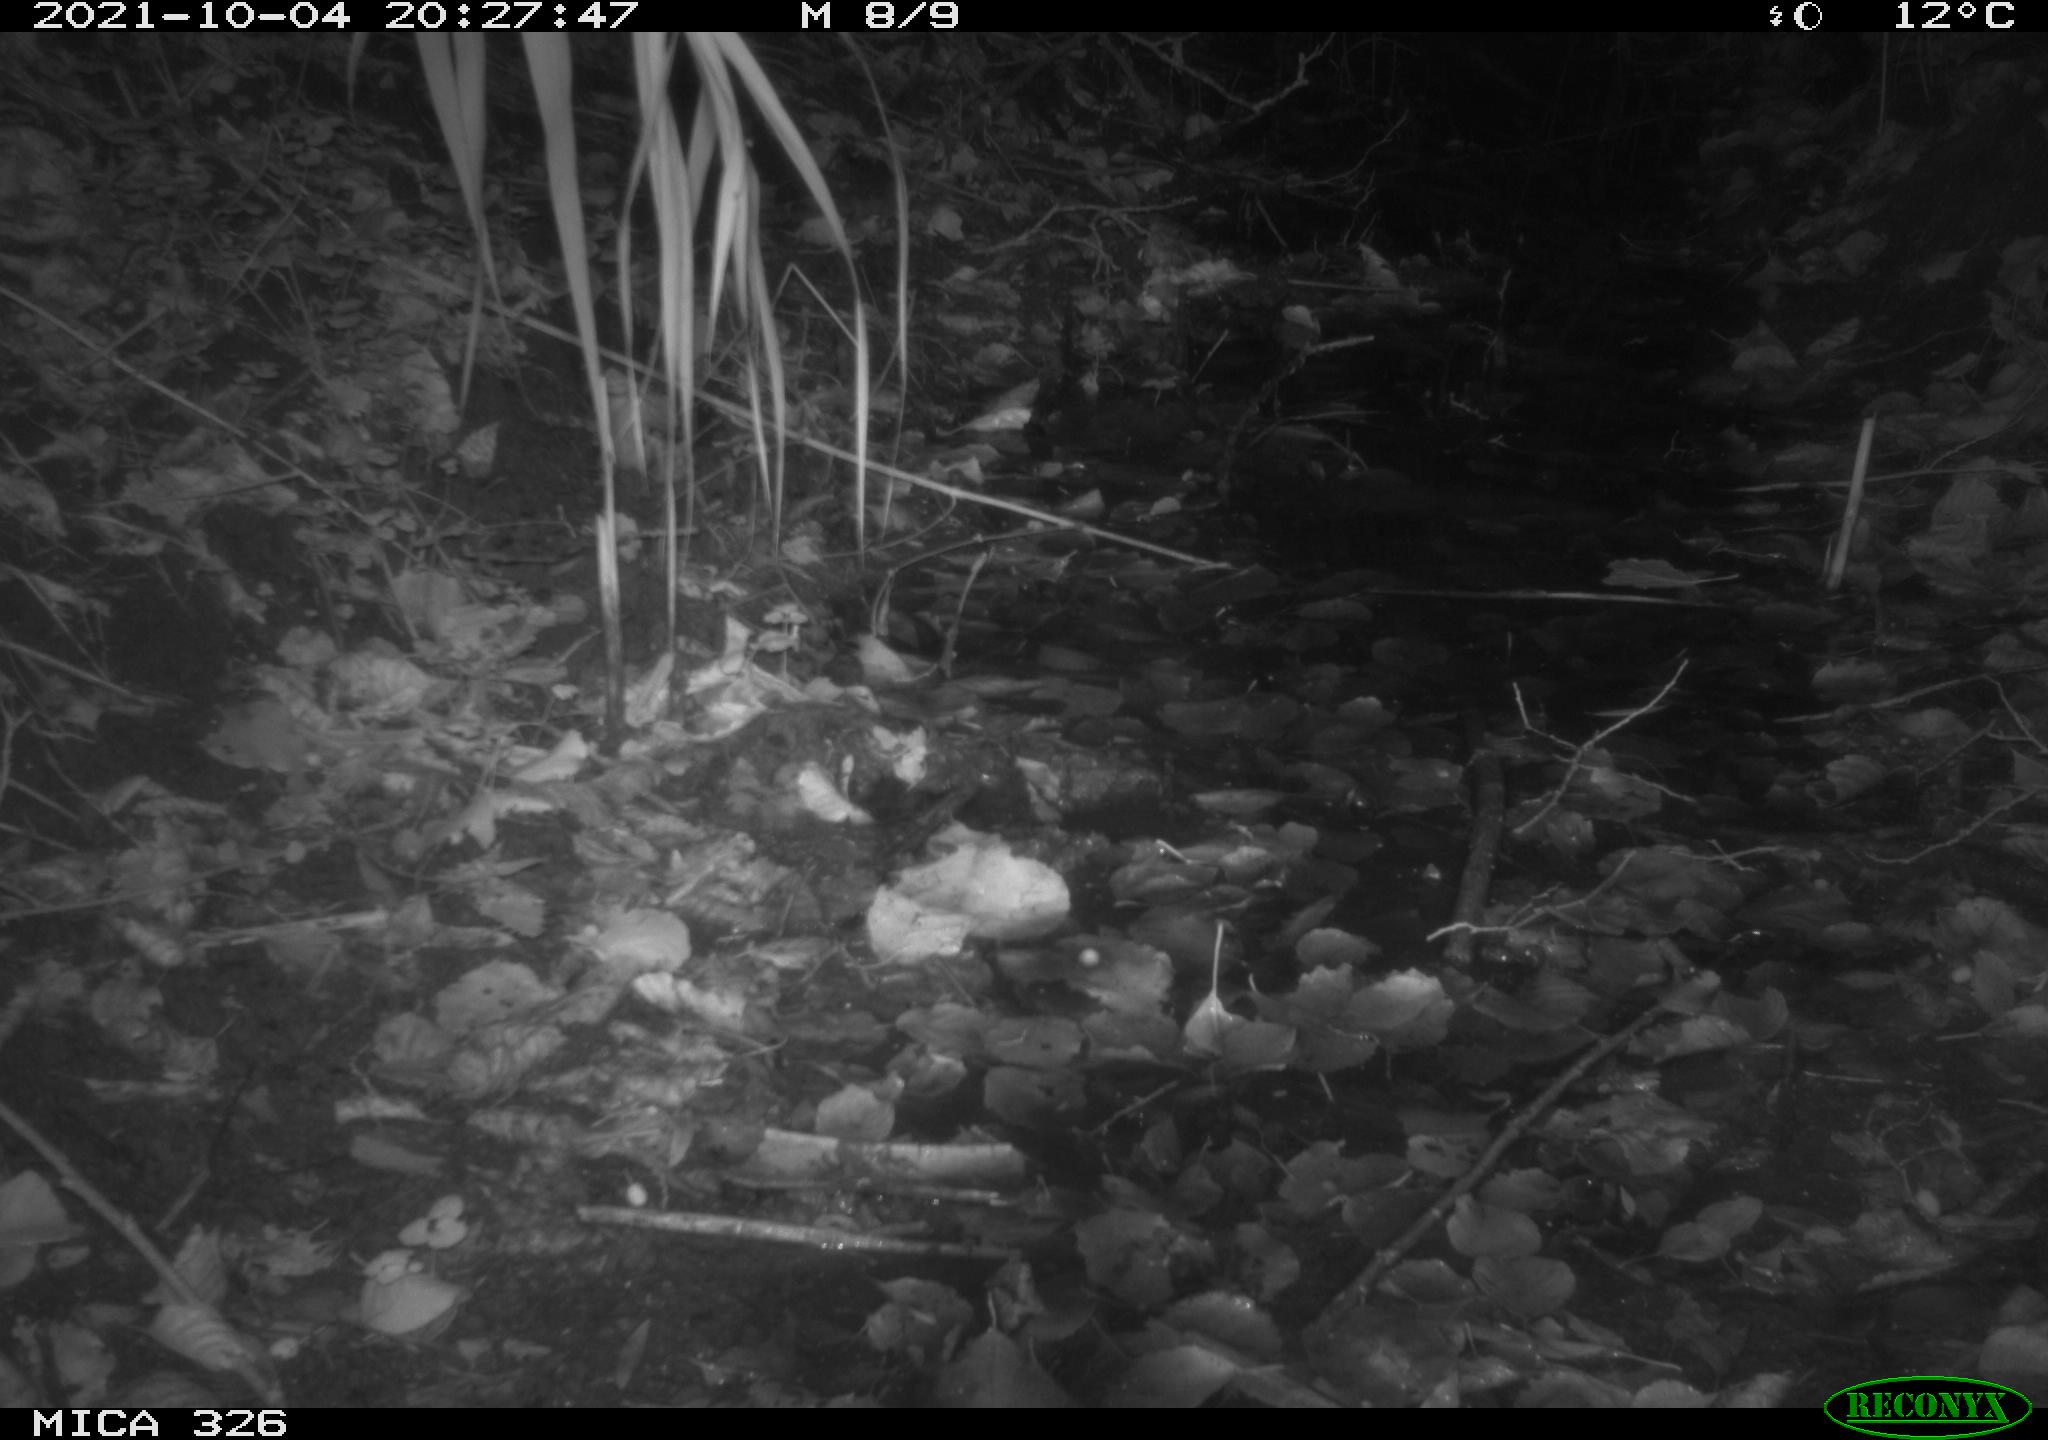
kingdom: Animalia
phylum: Chordata
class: Mammalia
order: Rodentia
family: Myocastoridae
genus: Myocastor
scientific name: Myocastor coypus
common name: Coypu
